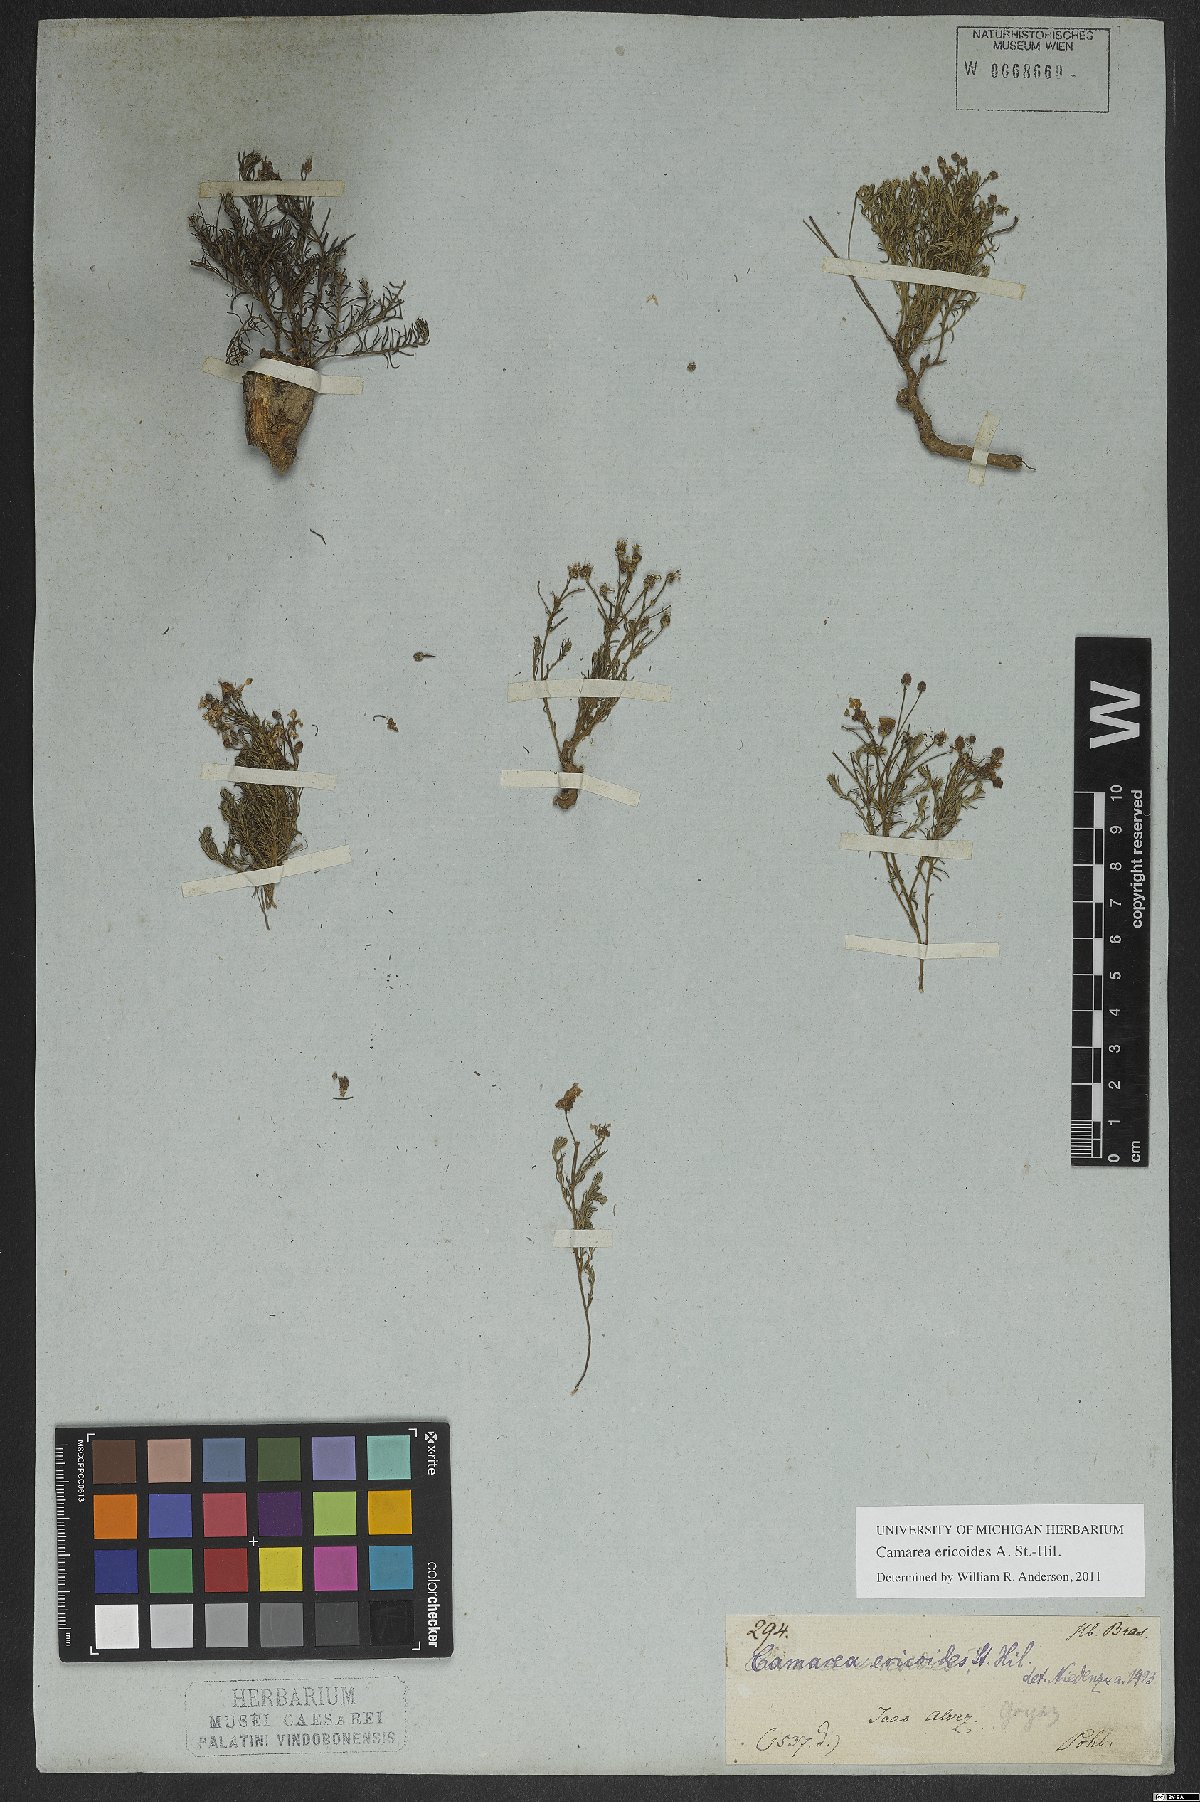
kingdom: Plantae
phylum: Tracheophyta
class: Magnoliopsida
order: Malpighiales
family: Malpighiaceae
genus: Camarea
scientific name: Camarea ericoides
